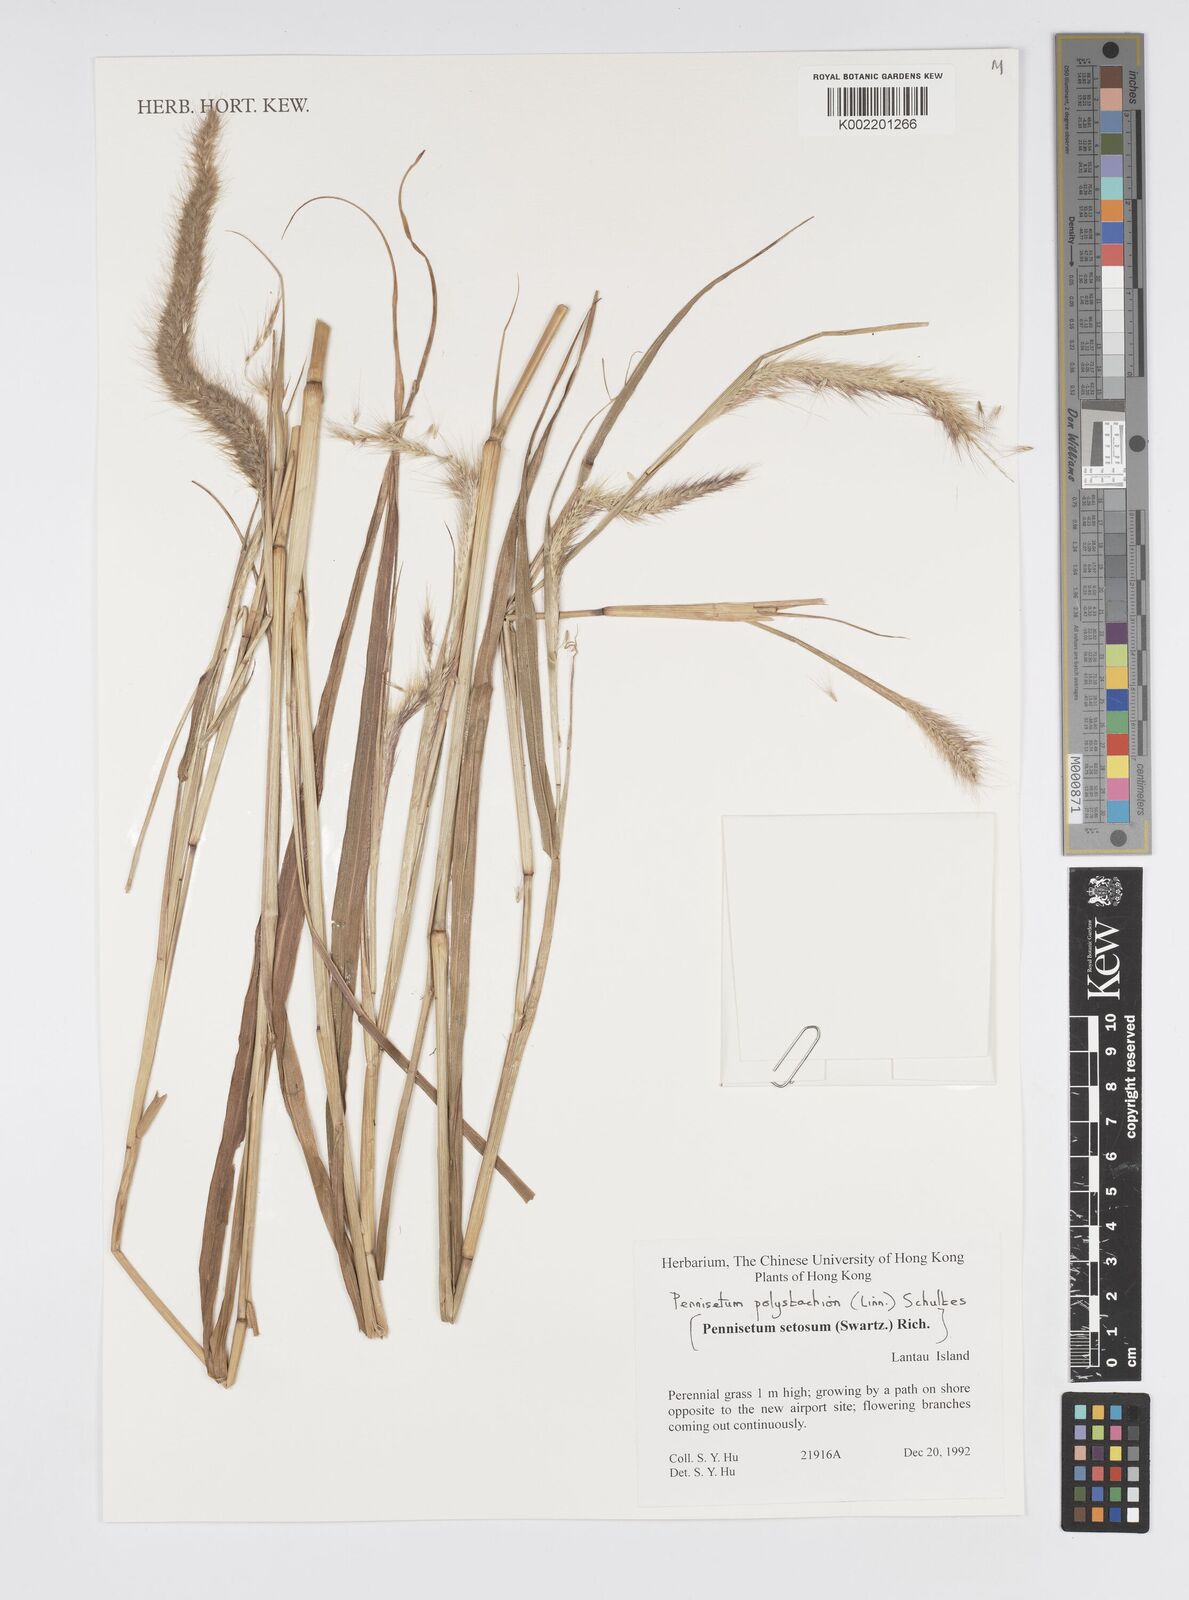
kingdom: Plantae
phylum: Tracheophyta
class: Liliopsida
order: Poales
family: Poaceae
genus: Setaria
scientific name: Setaria parviflora
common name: Knotroot bristle-grass
